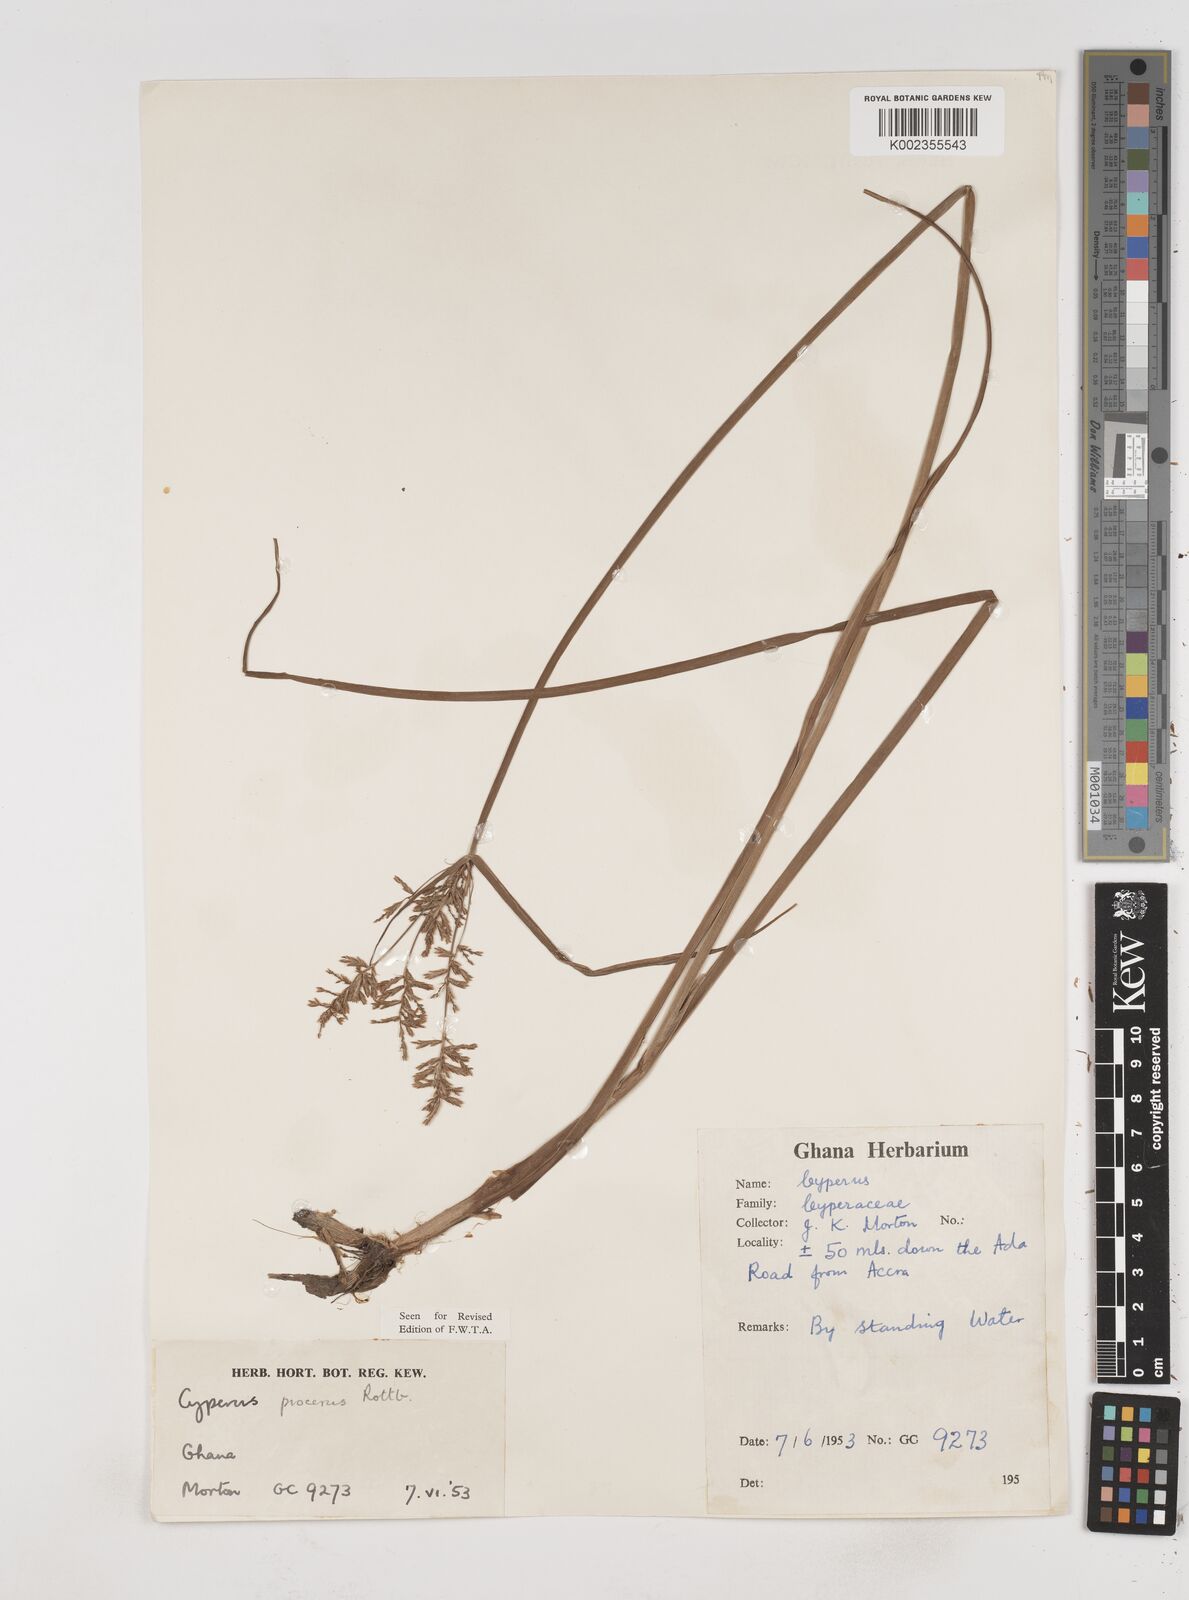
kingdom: Plantae
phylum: Tracheophyta
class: Liliopsida
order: Poales
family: Cyperaceae
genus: Cyperus
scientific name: Cyperus procerus
